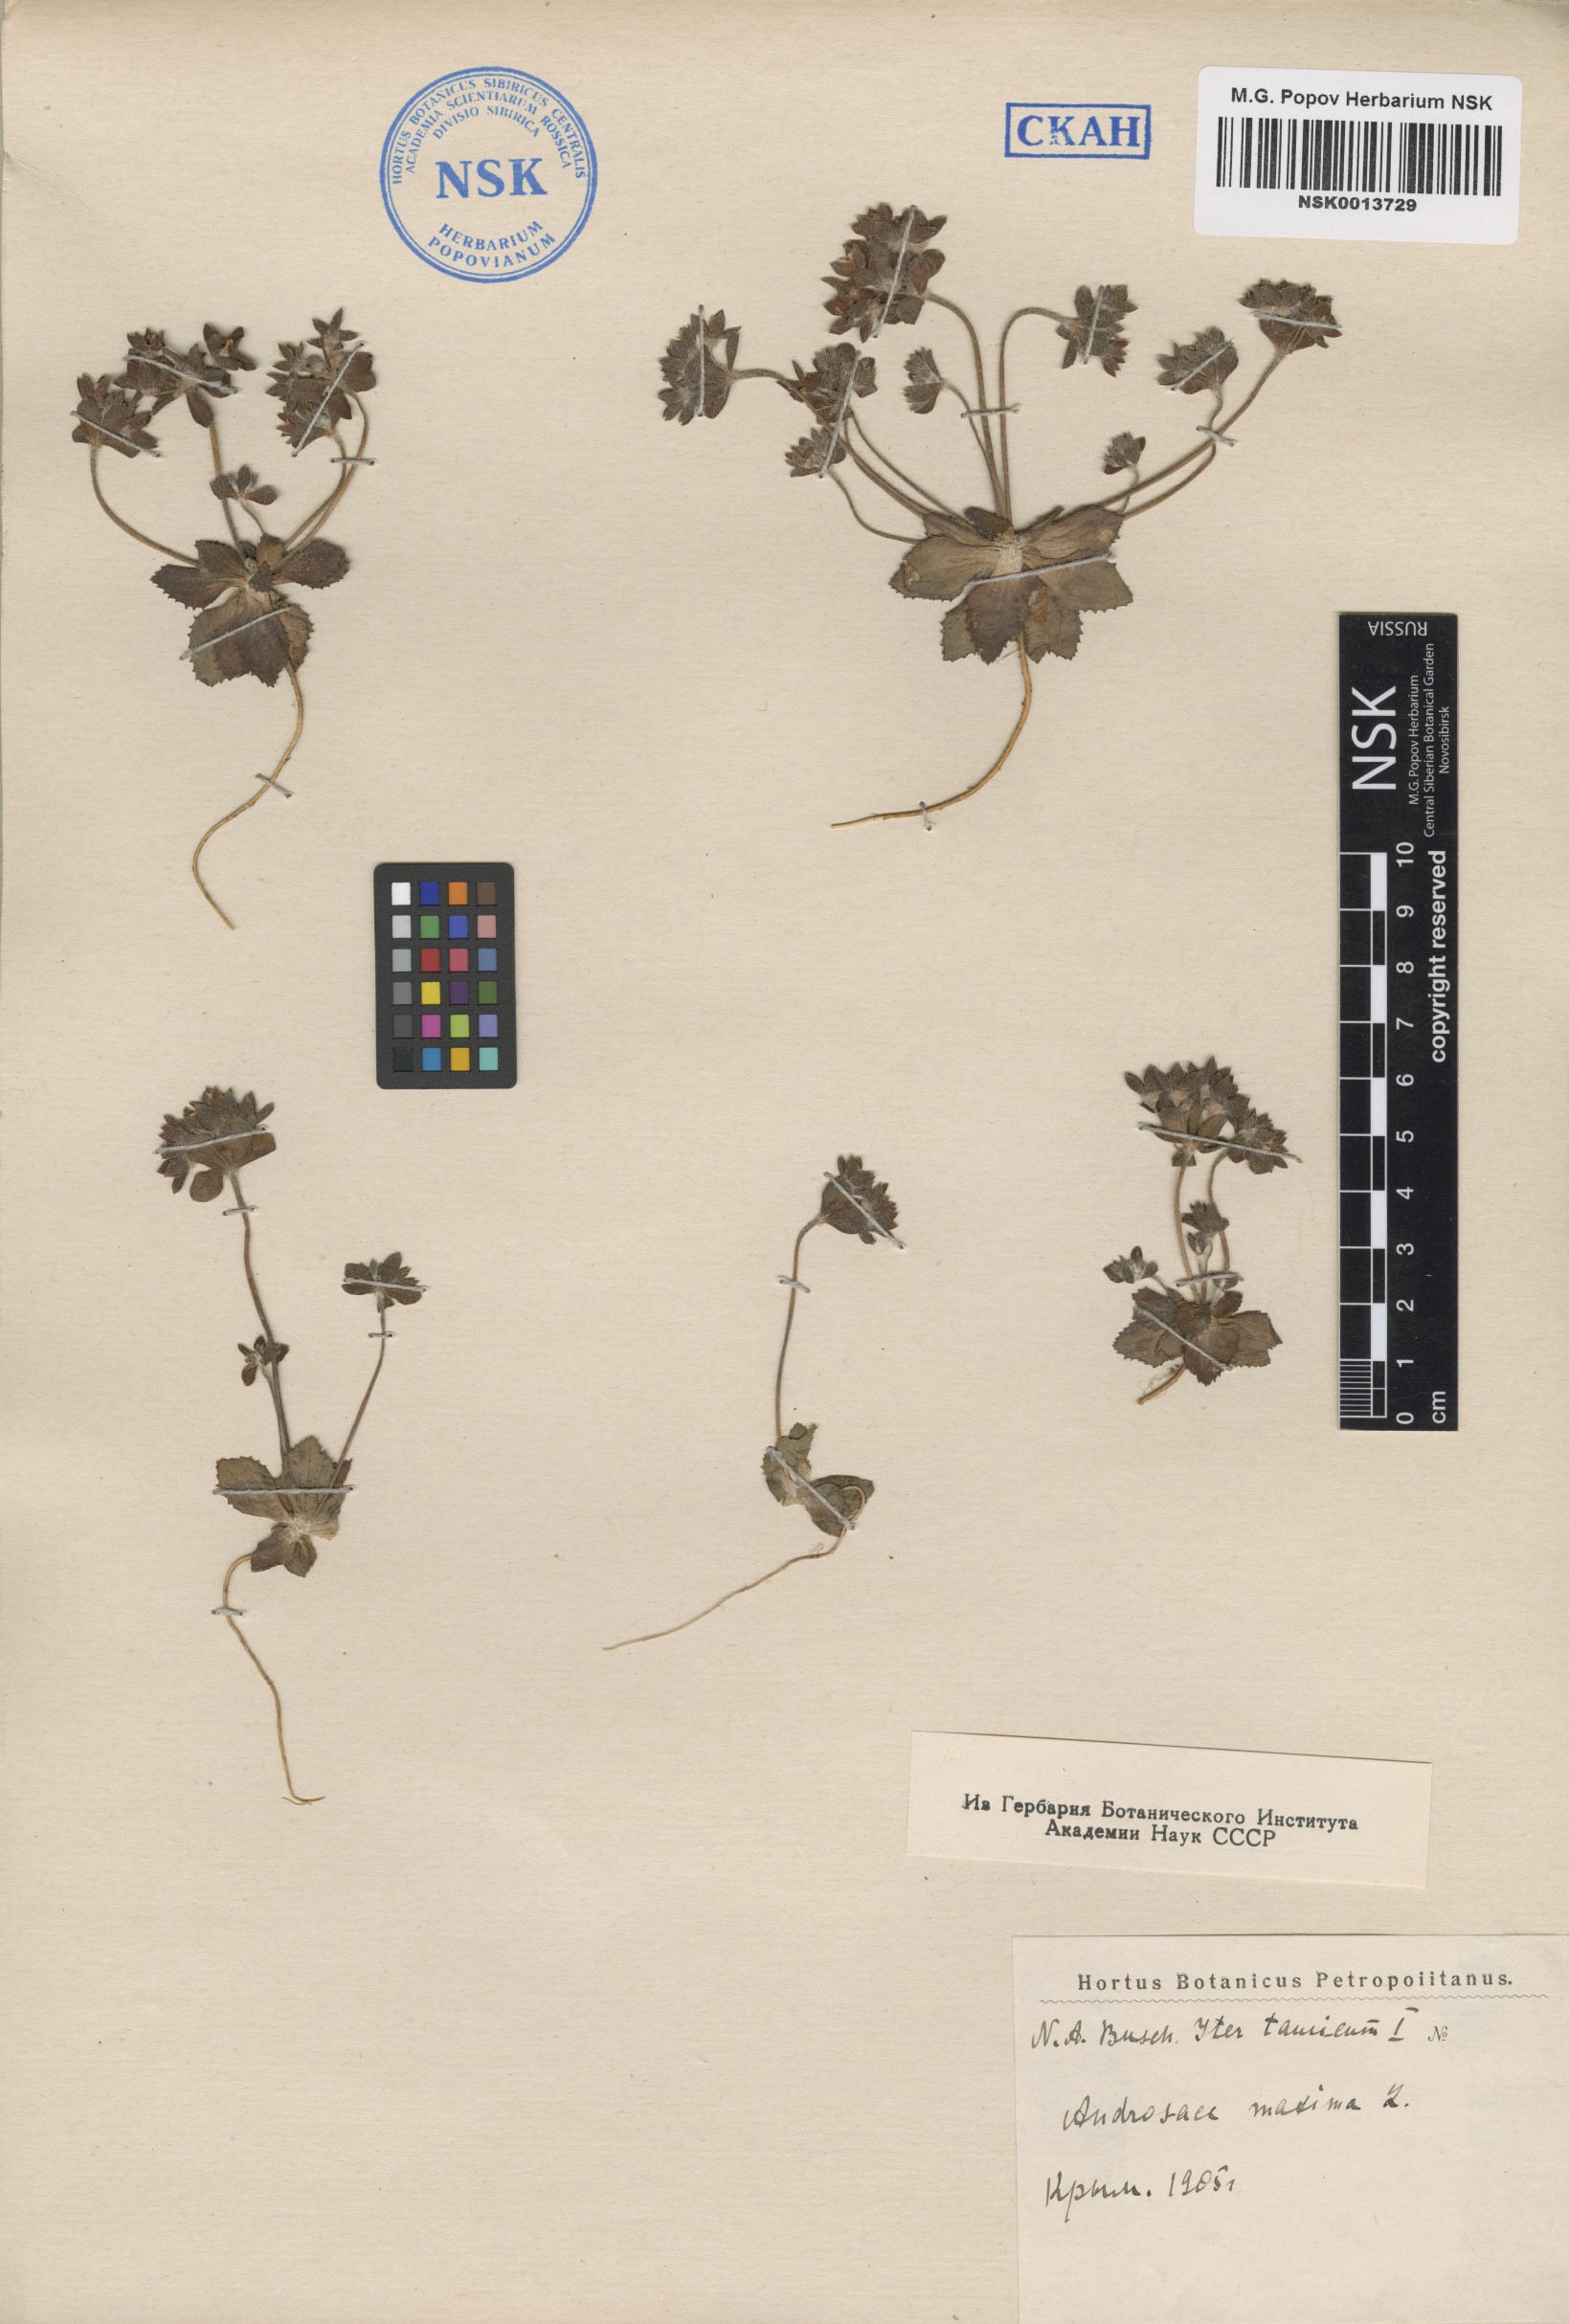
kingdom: Plantae
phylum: Tracheophyta
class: Magnoliopsida
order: Ericales
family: Primulaceae
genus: Androsace
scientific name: Androsace maxima
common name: Annual androsace
